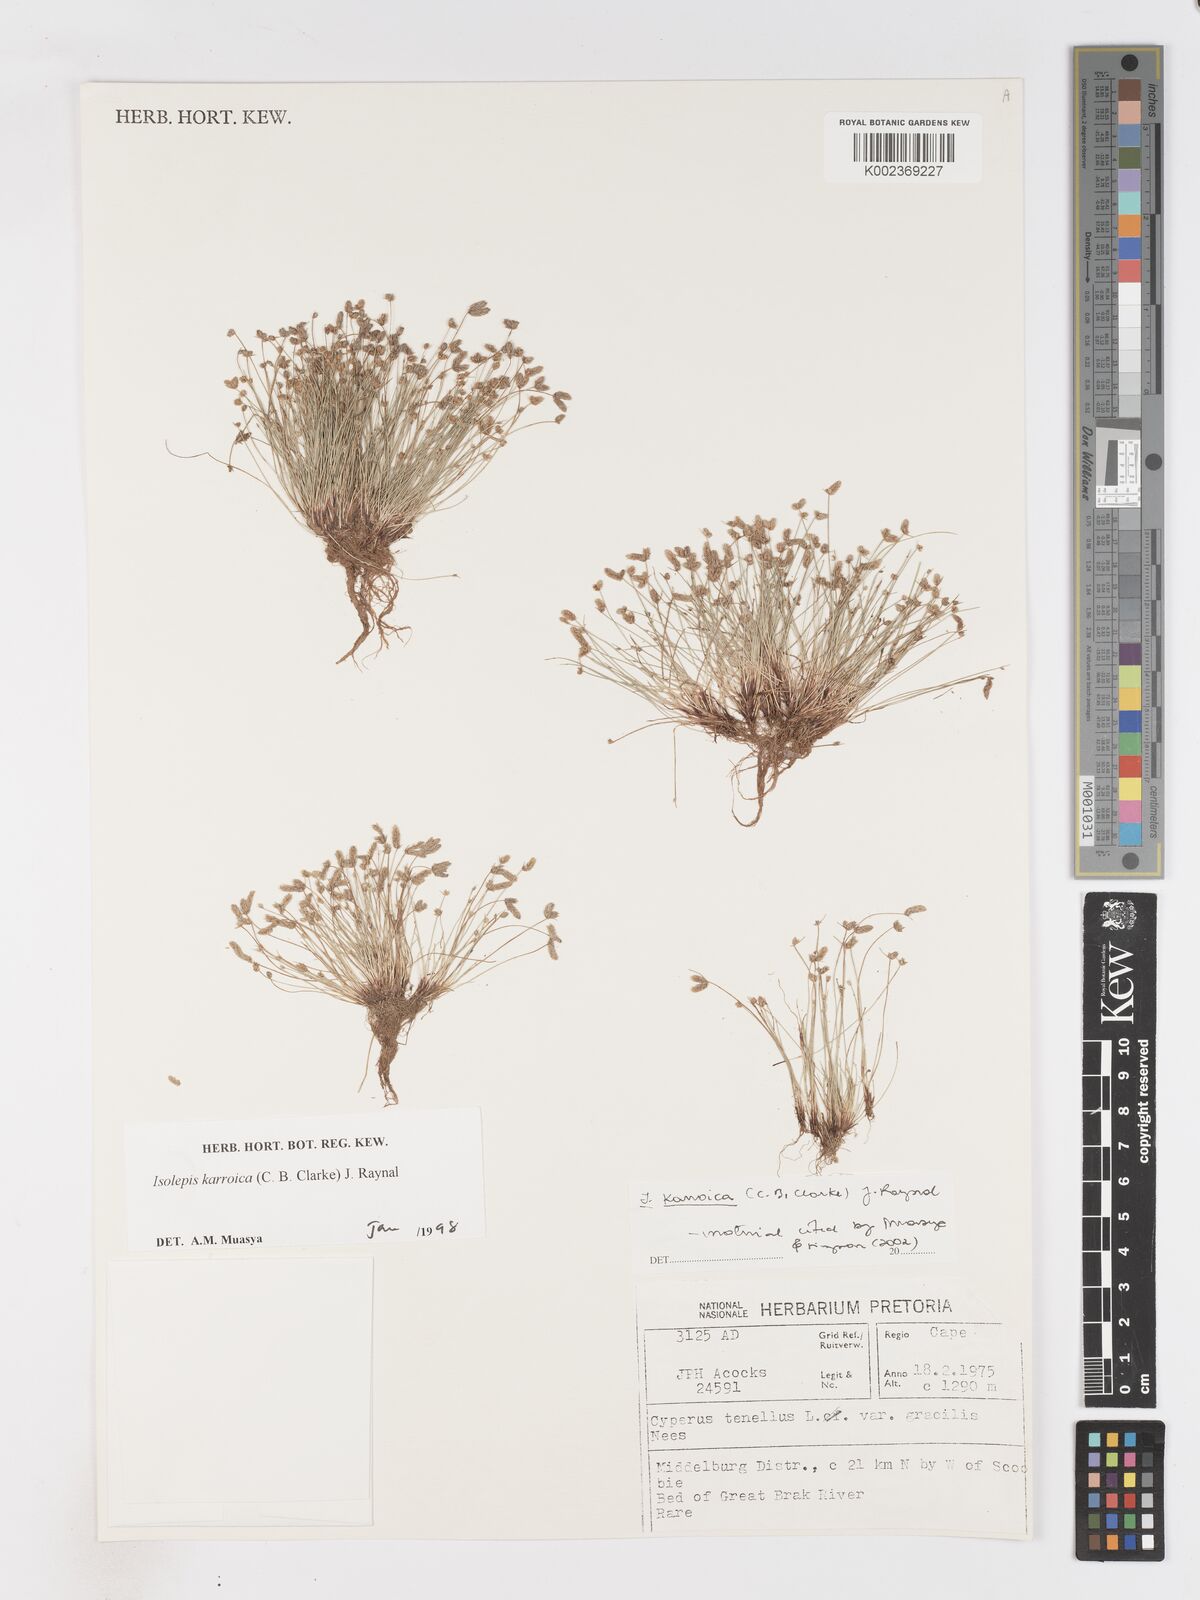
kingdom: Plantae
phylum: Tracheophyta
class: Liliopsida
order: Poales
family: Cyperaceae
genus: Isolepis
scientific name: Isolepis karroica
